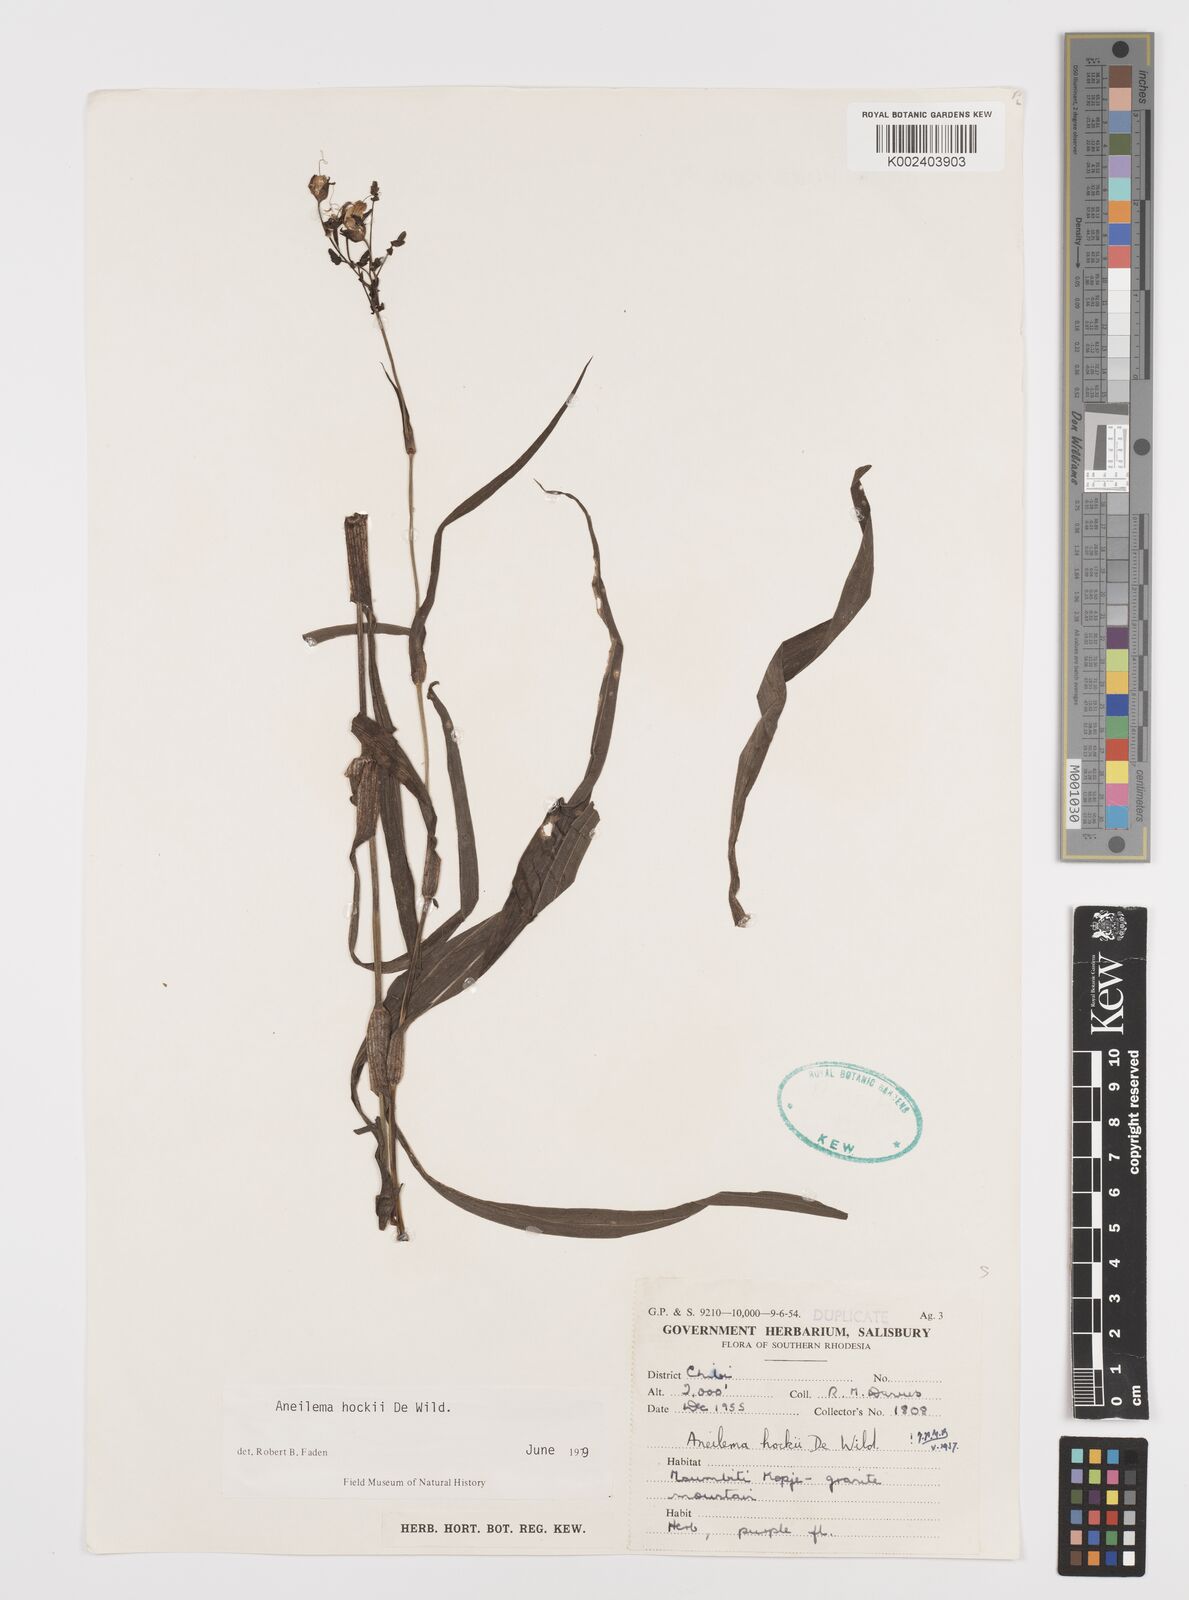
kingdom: Plantae
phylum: Tracheophyta
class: Liliopsida
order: Commelinales
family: Commelinaceae
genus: Aneilema
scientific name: Aneilema hockii
